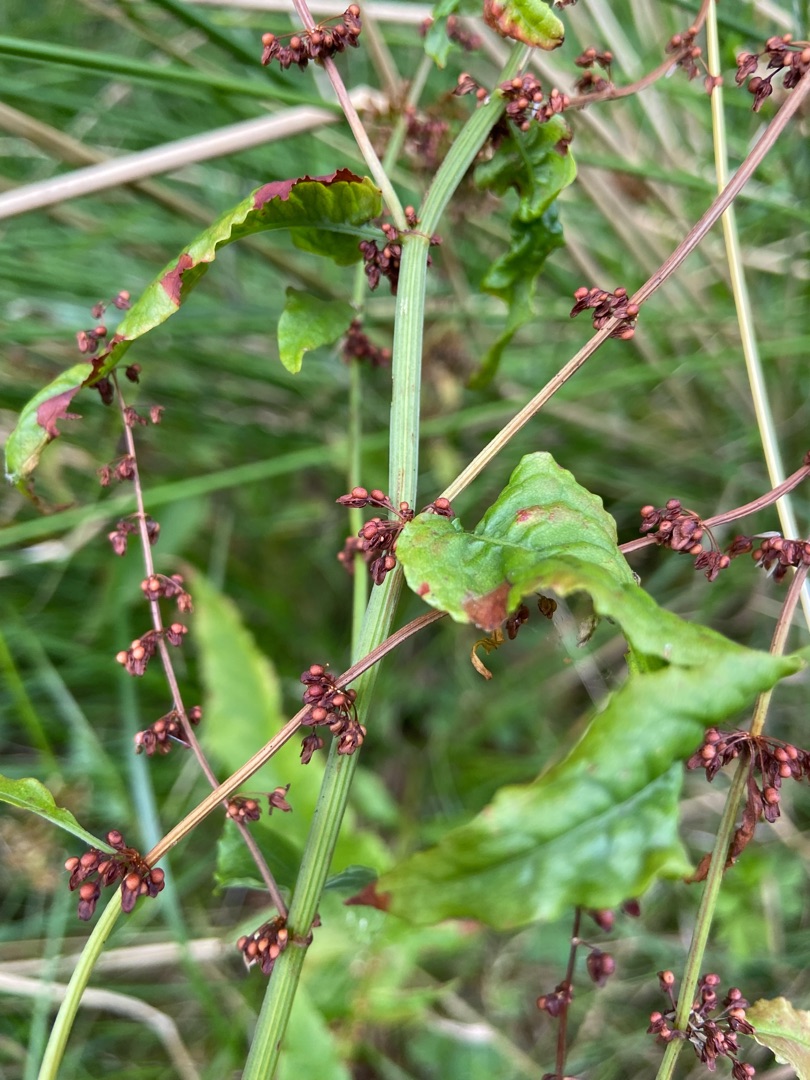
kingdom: Plantae
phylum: Tracheophyta
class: Magnoliopsida
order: Caryophyllales
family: Polygonaceae
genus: Rumex
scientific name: Rumex sanguineus
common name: Skov-skræppe
